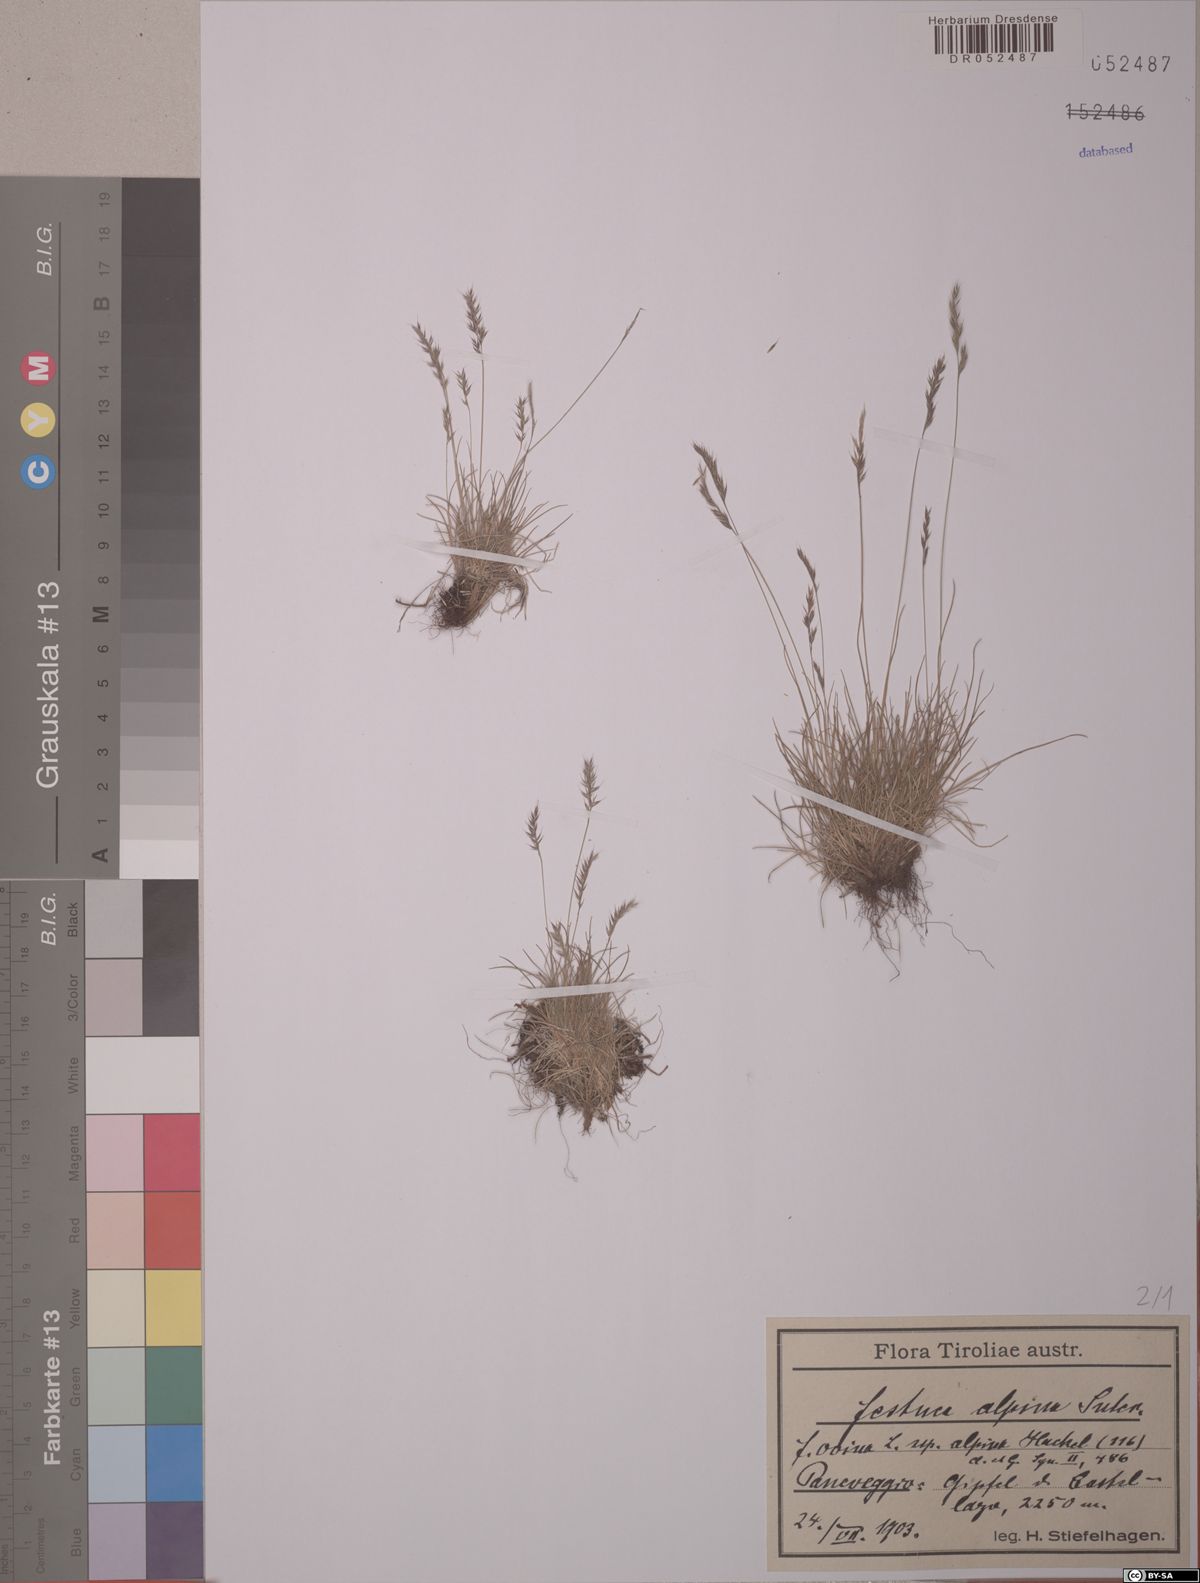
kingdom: Plantae
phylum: Tracheophyta
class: Liliopsida
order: Poales
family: Poaceae
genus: Festuca
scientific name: Festuca alpina
